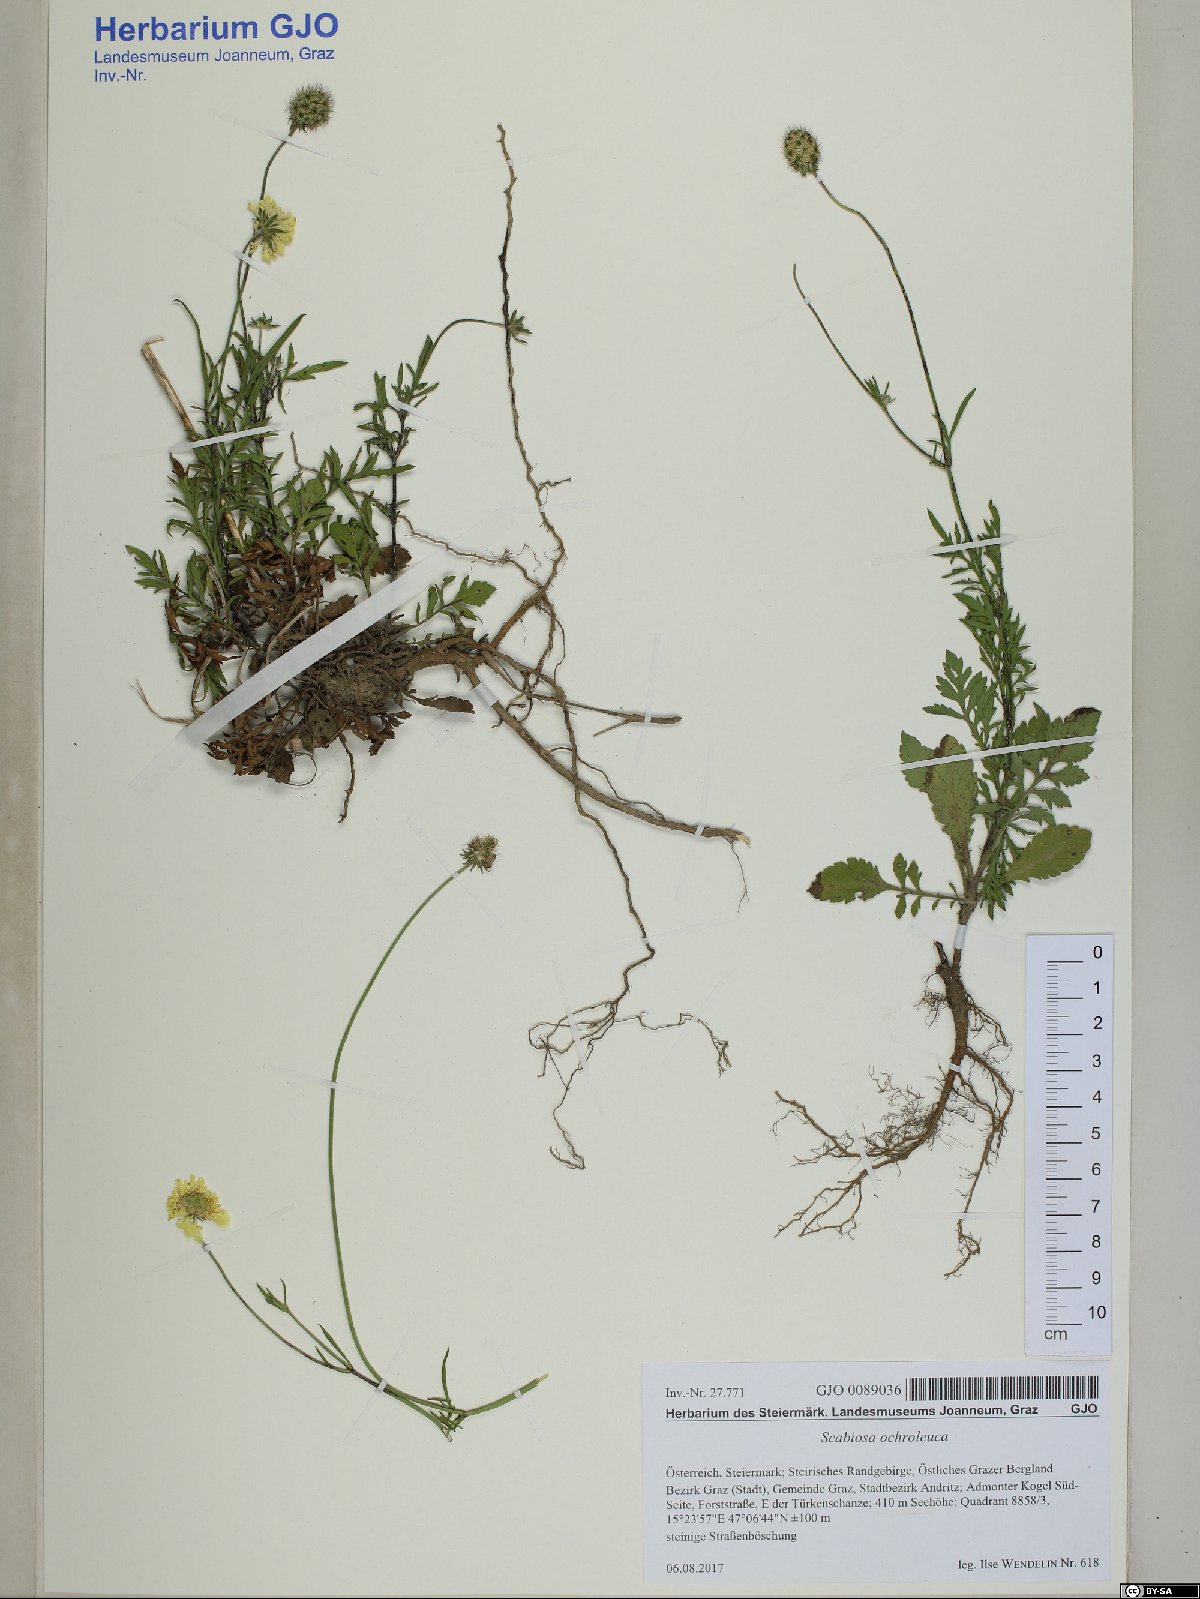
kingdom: Plantae
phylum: Tracheophyta
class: Magnoliopsida
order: Dipsacales
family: Caprifoliaceae
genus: Scabiosa
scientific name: Scabiosa ochroleuca
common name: Cream pincushions
